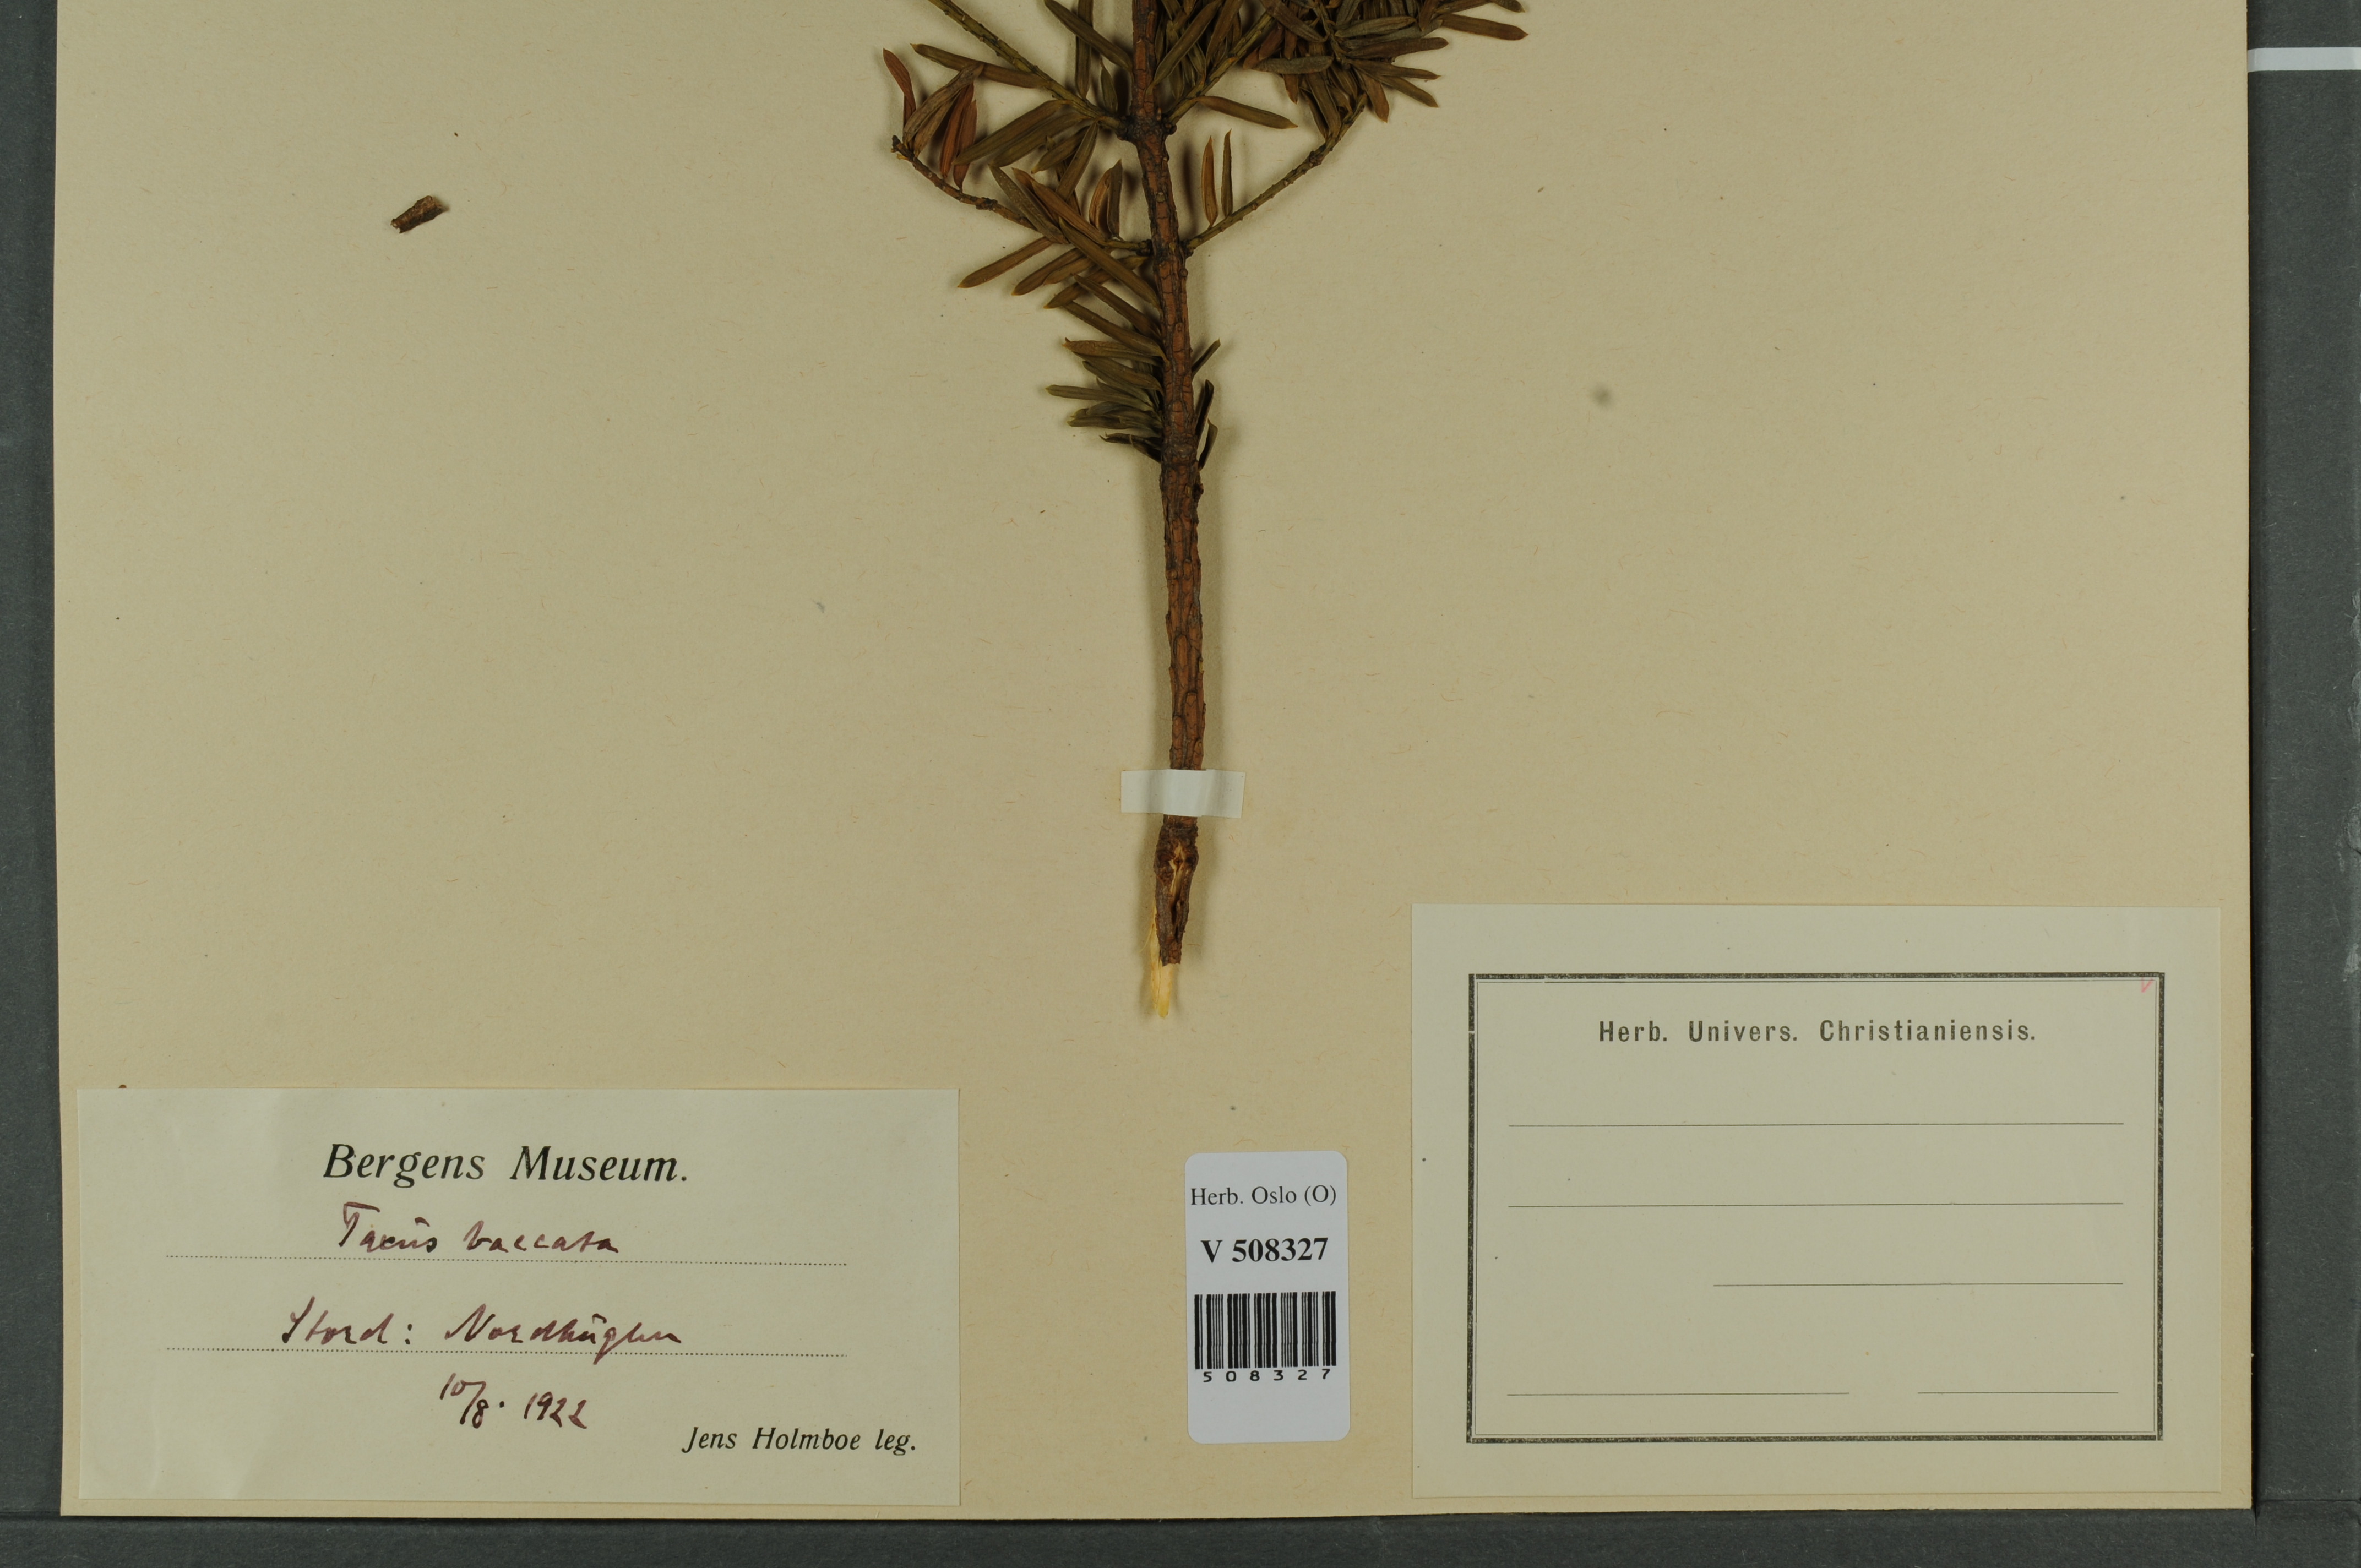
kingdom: Plantae
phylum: Tracheophyta
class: Pinopsida
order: Pinales
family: Taxaceae
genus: Taxus
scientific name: Taxus baccata
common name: Yew
